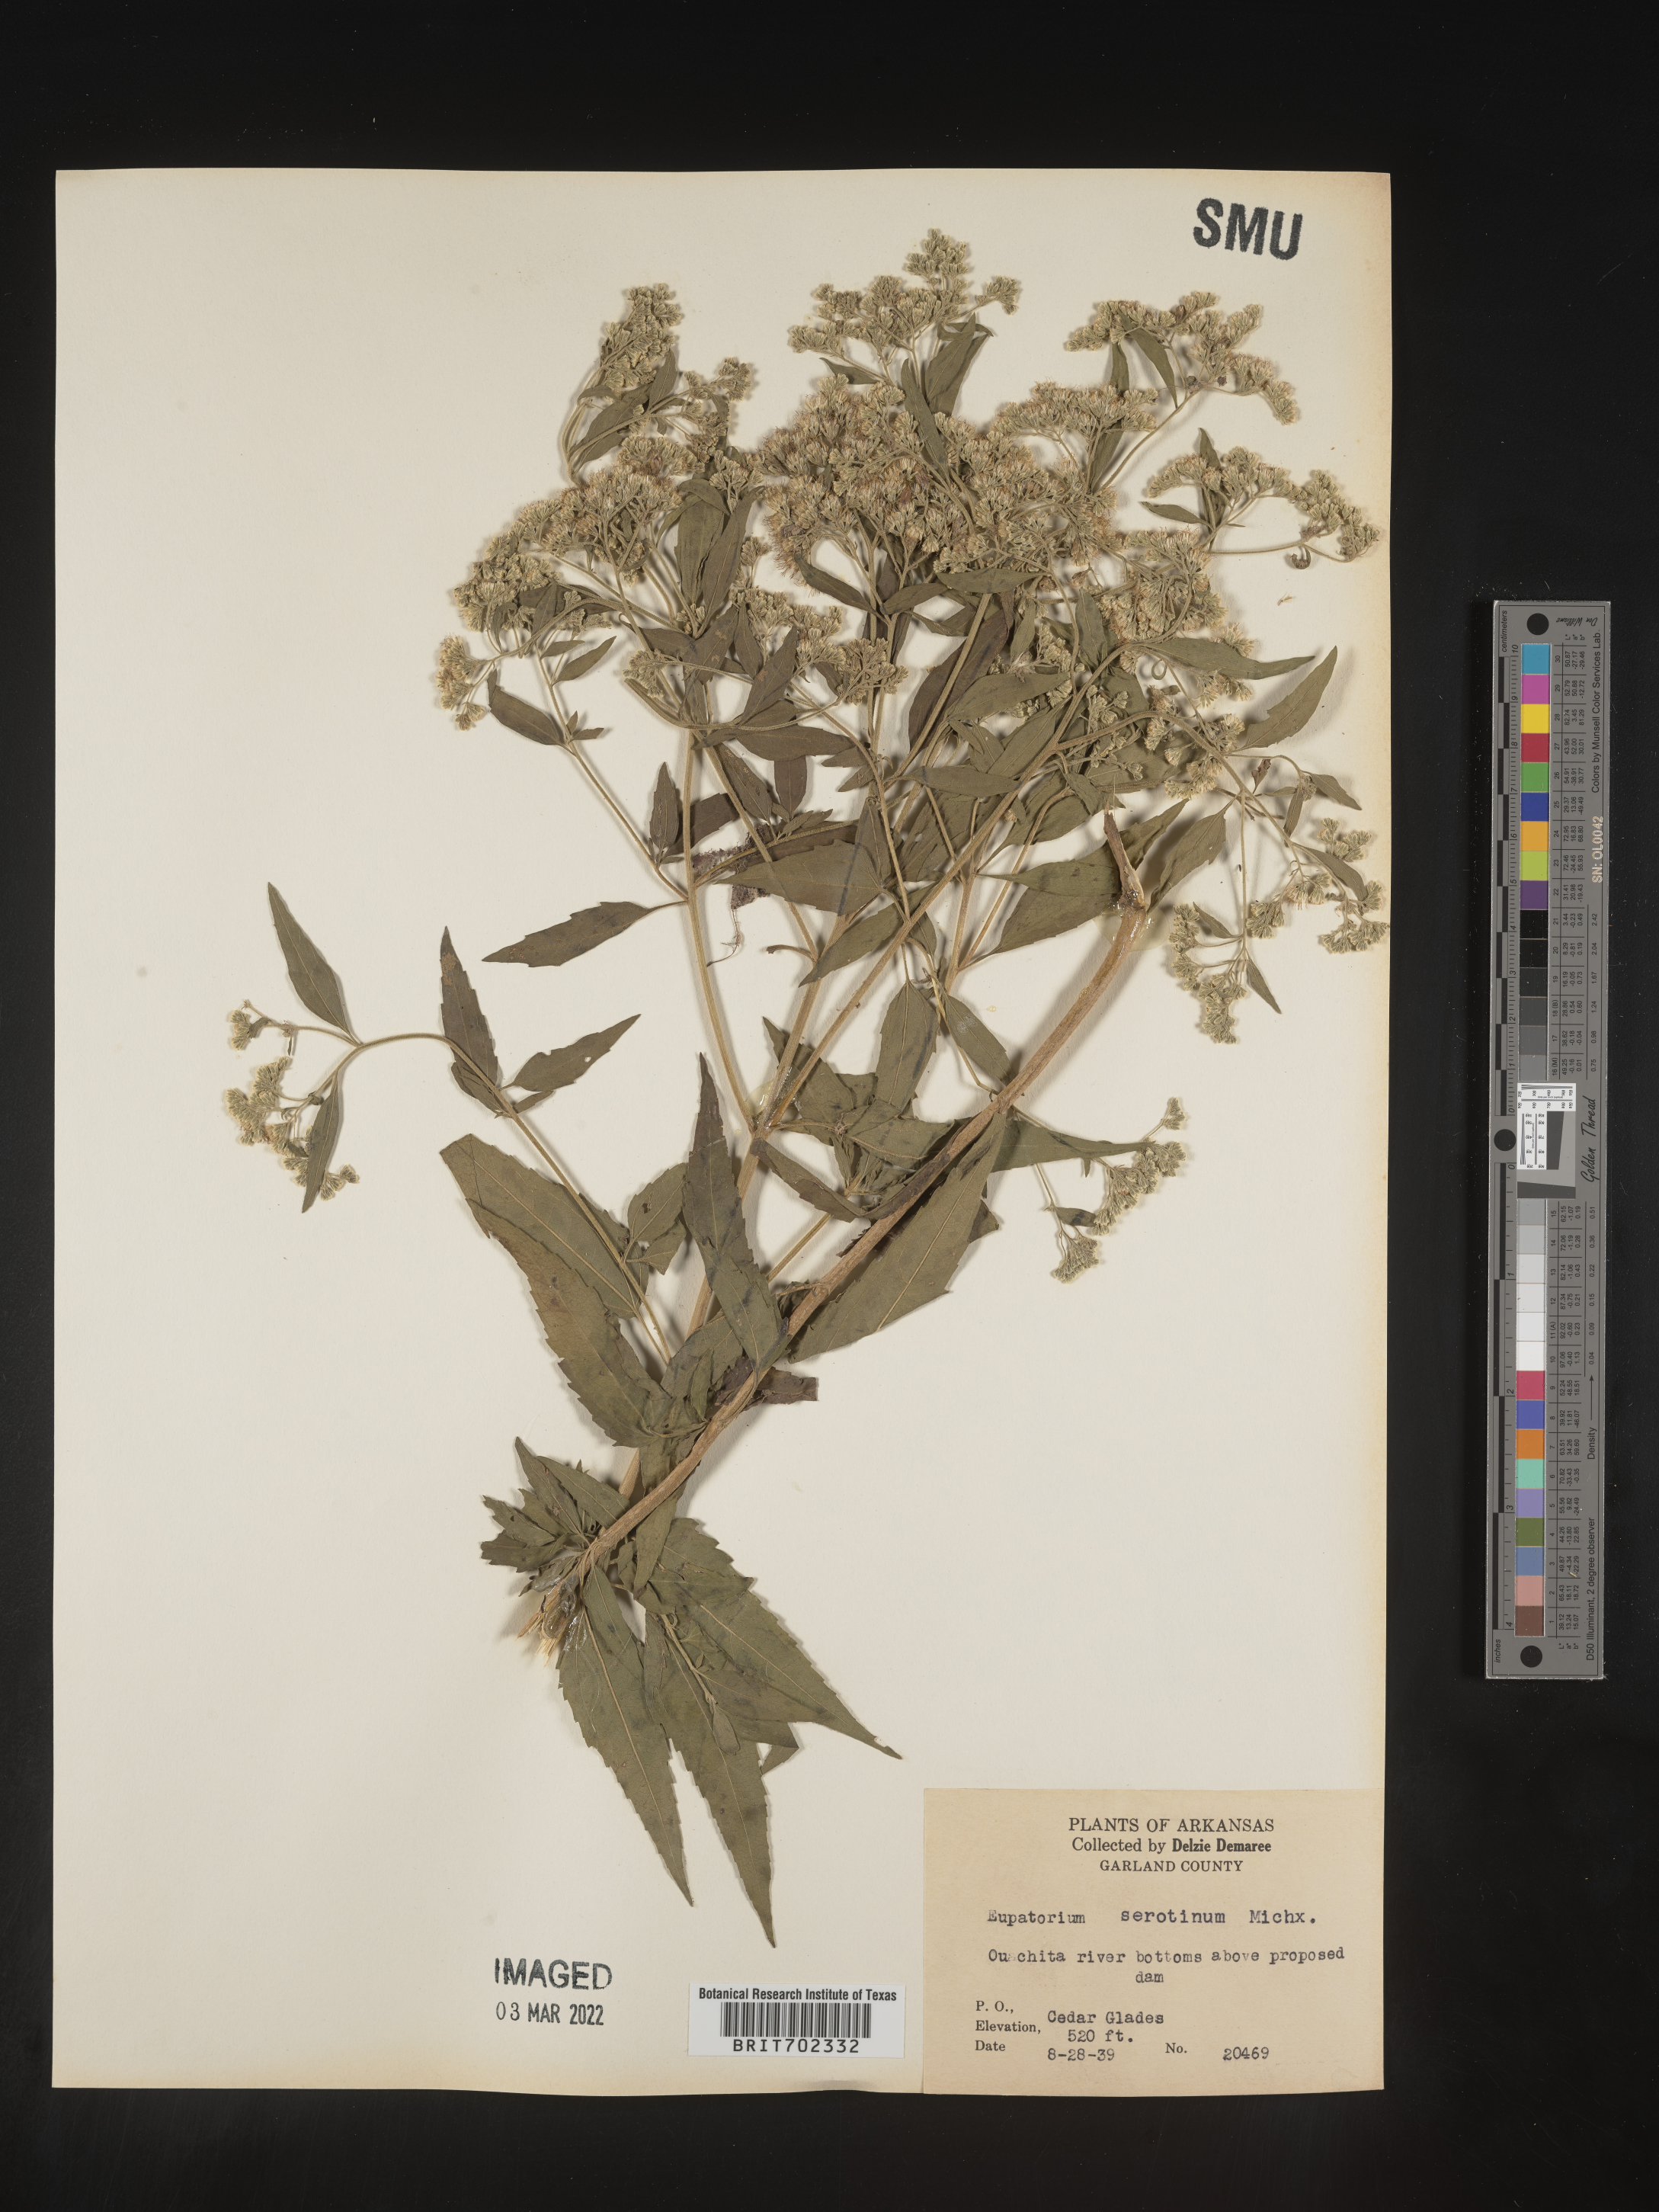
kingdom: Plantae
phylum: Tracheophyta
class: Magnoliopsida
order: Asterales
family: Asteraceae
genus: Eupatorium
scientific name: Eupatorium serotinum
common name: Late boneset
